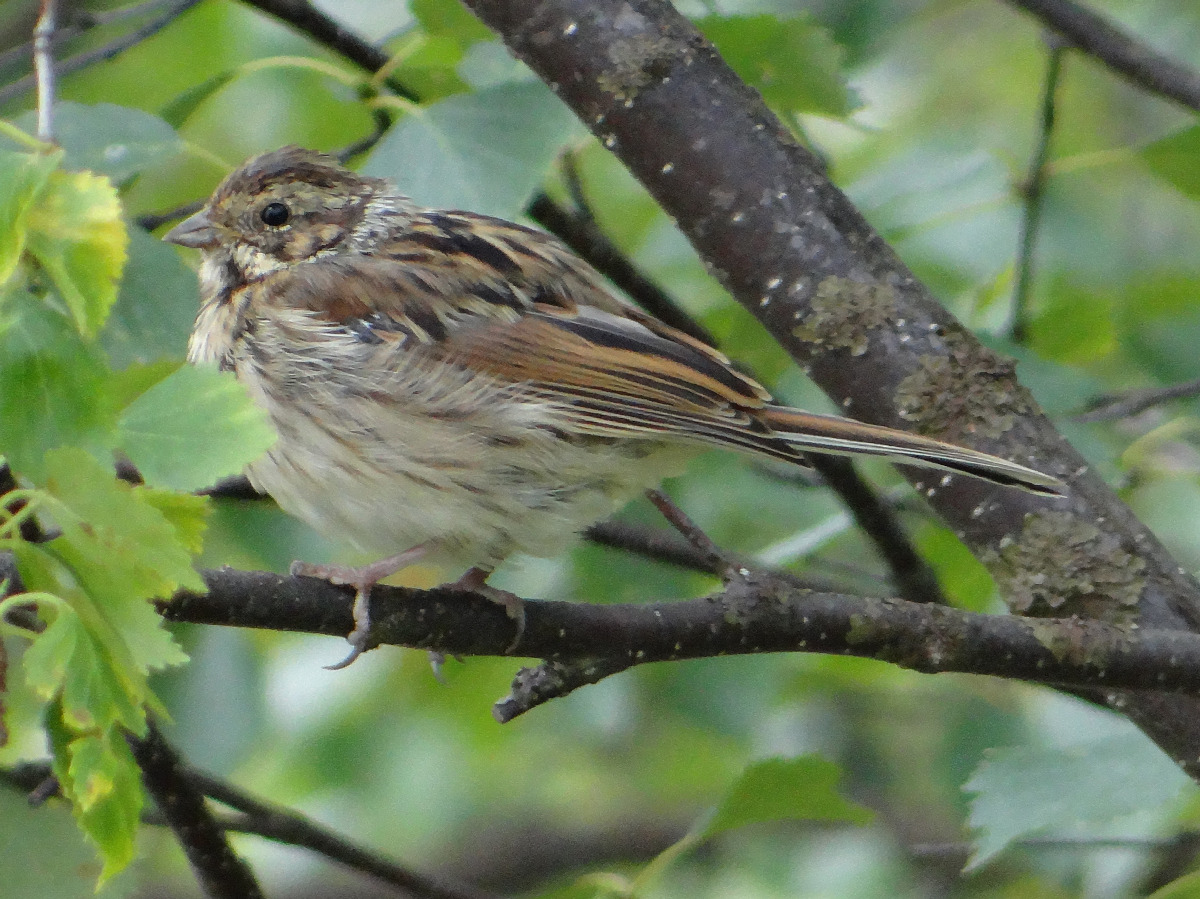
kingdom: Animalia
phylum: Chordata
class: Aves
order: Passeriformes
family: Emberizidae
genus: Emberiza
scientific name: Emberiza schoeniclus
